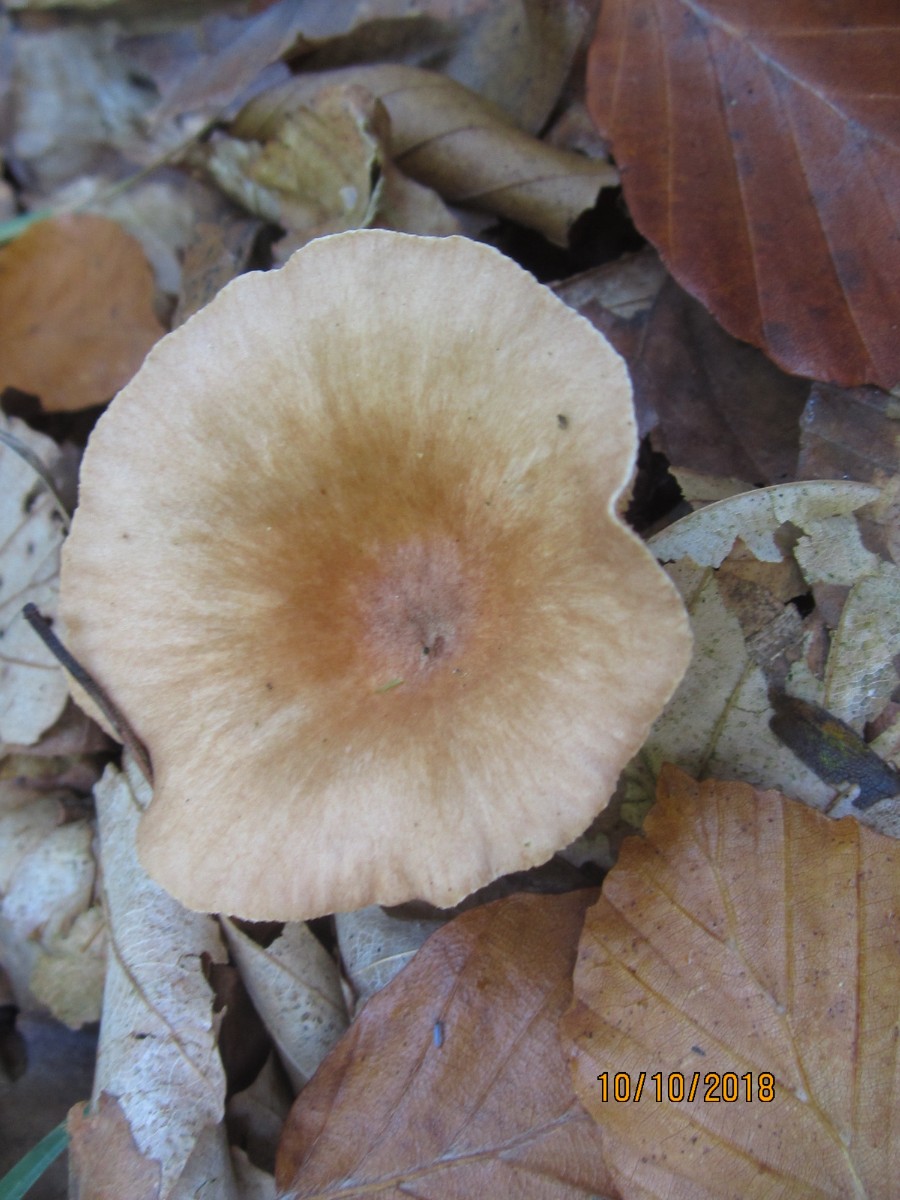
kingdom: Fungi
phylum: Basidiomycota
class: Agaricomycetes
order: Agaricales
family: Tricholomataceae
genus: Infundibulicybe
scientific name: Infundibulicybe gibba
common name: almindelig tragthat
